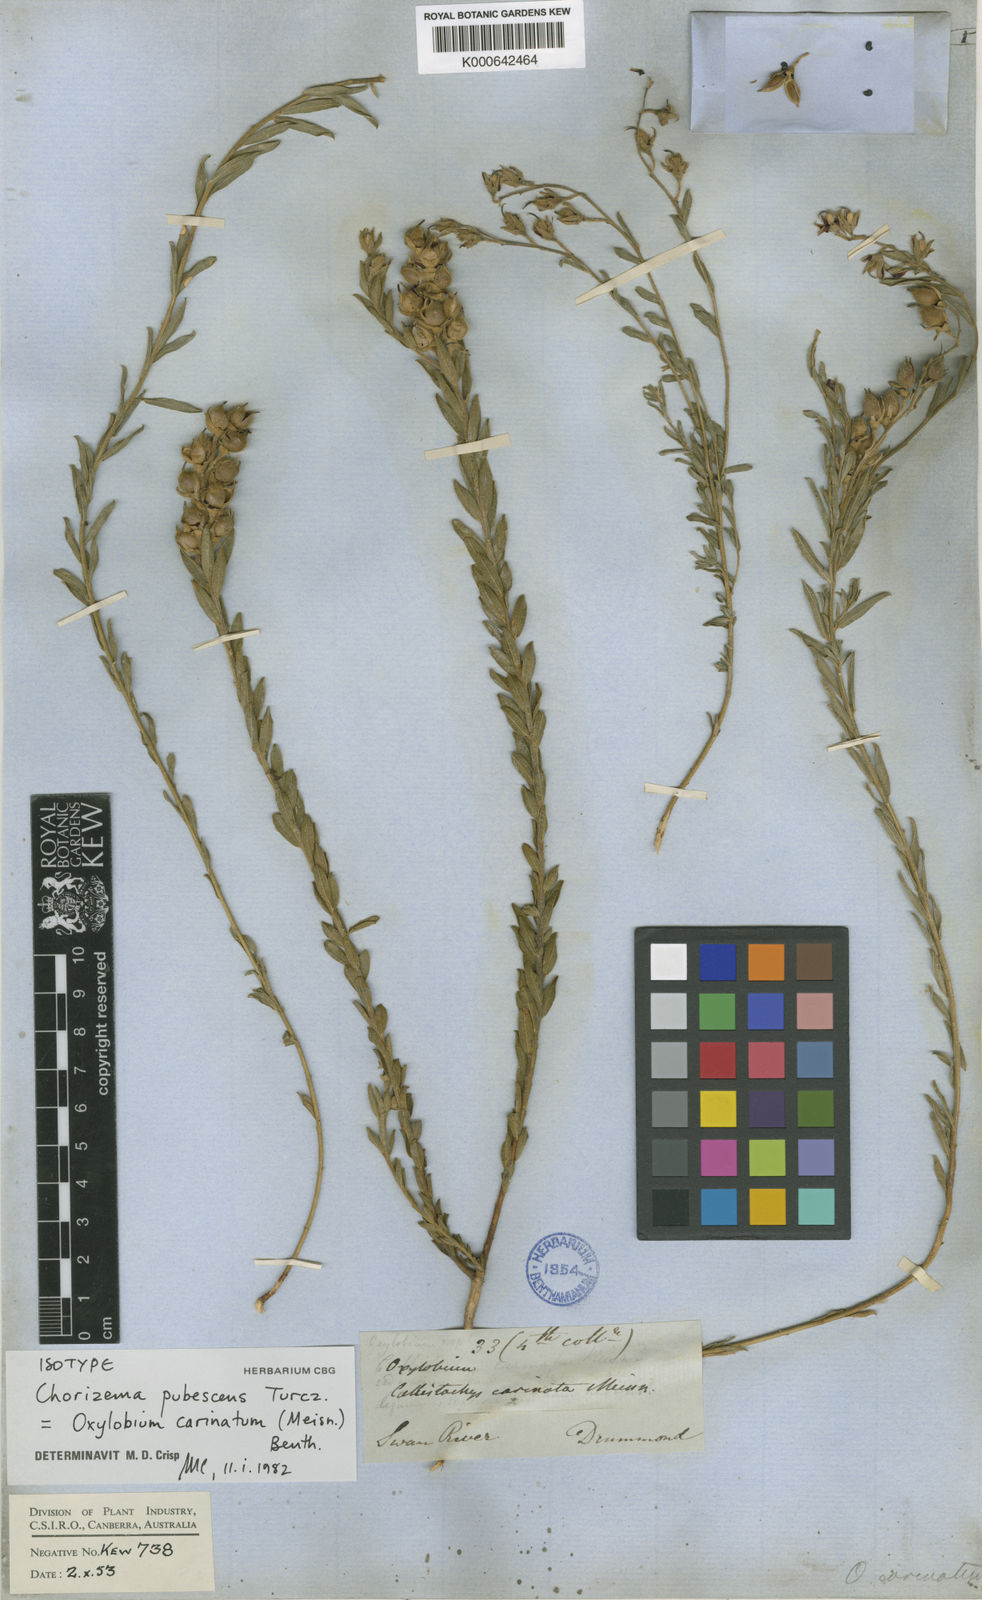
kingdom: Plantae
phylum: Tracheophyta
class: Magnoliopsida
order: Fabales
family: Fabaceae
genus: Chorizema
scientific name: Chorizema carinatum
